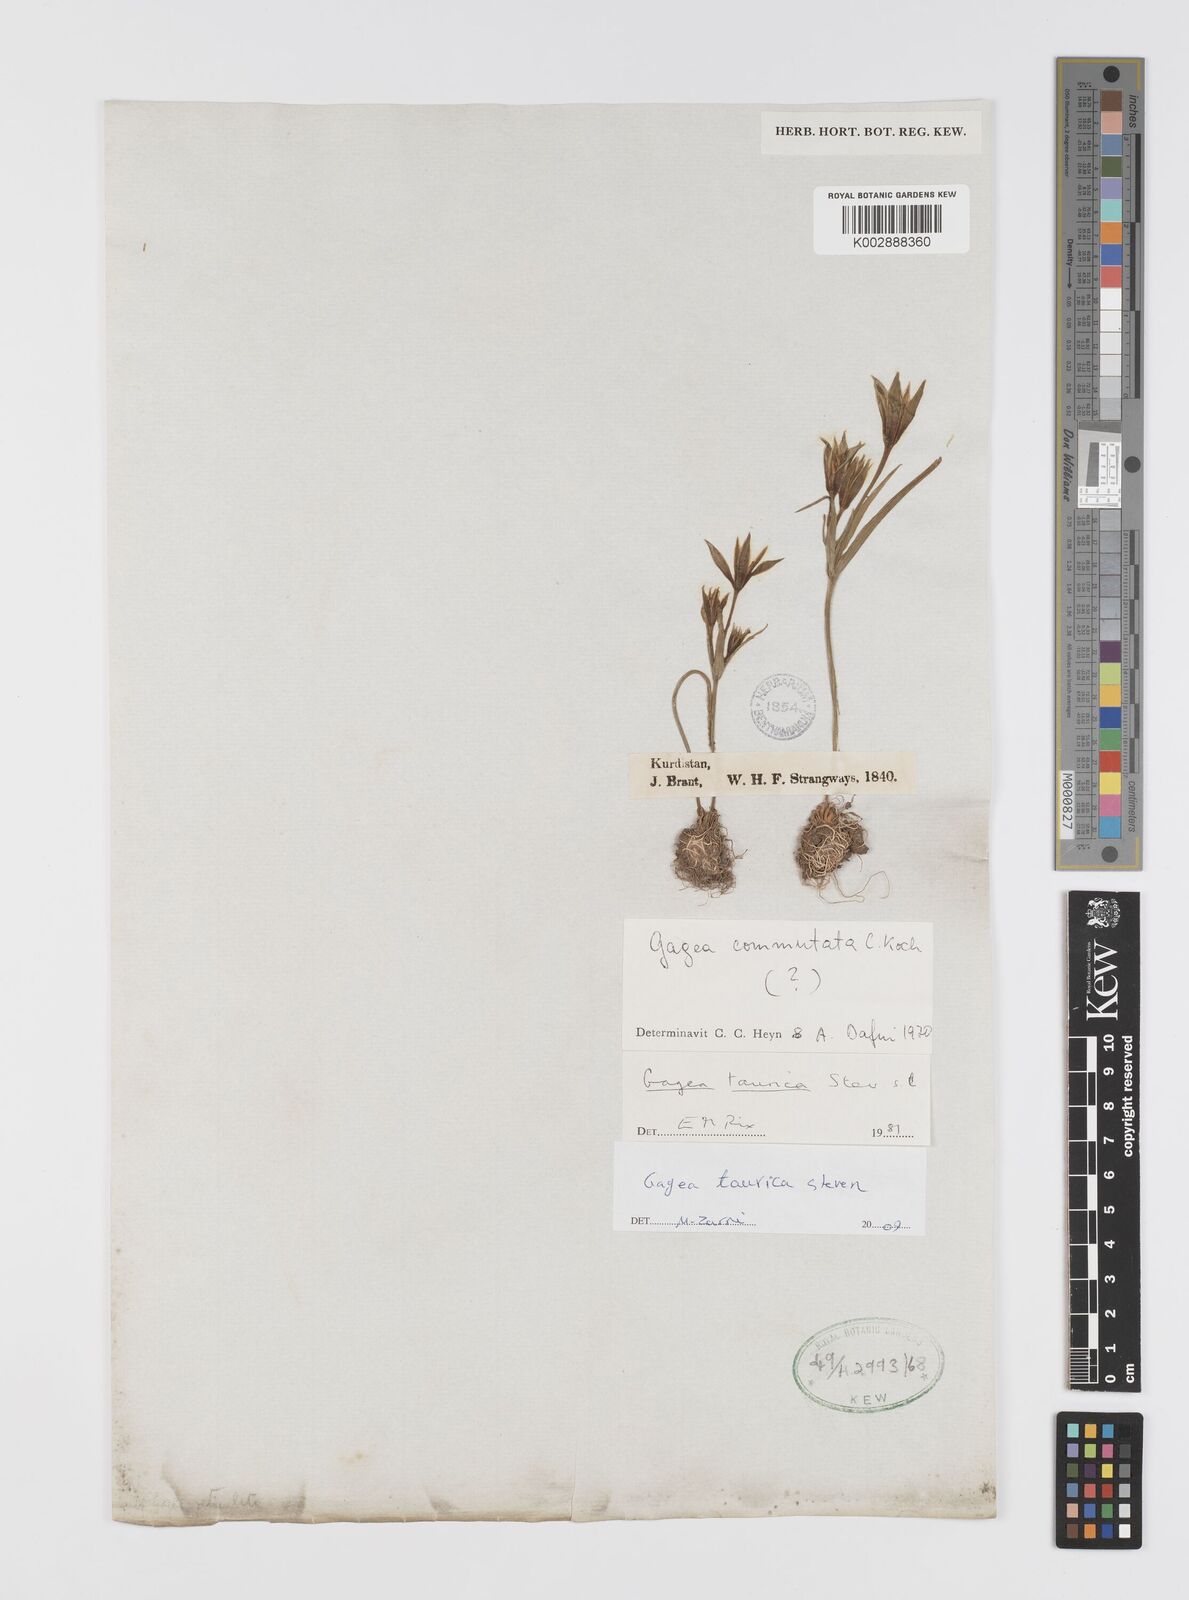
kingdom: Plantae
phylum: Tracheophyta
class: Liliopsida
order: Liliales
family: Liliaceae
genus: Gagea
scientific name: Gagea taurica
